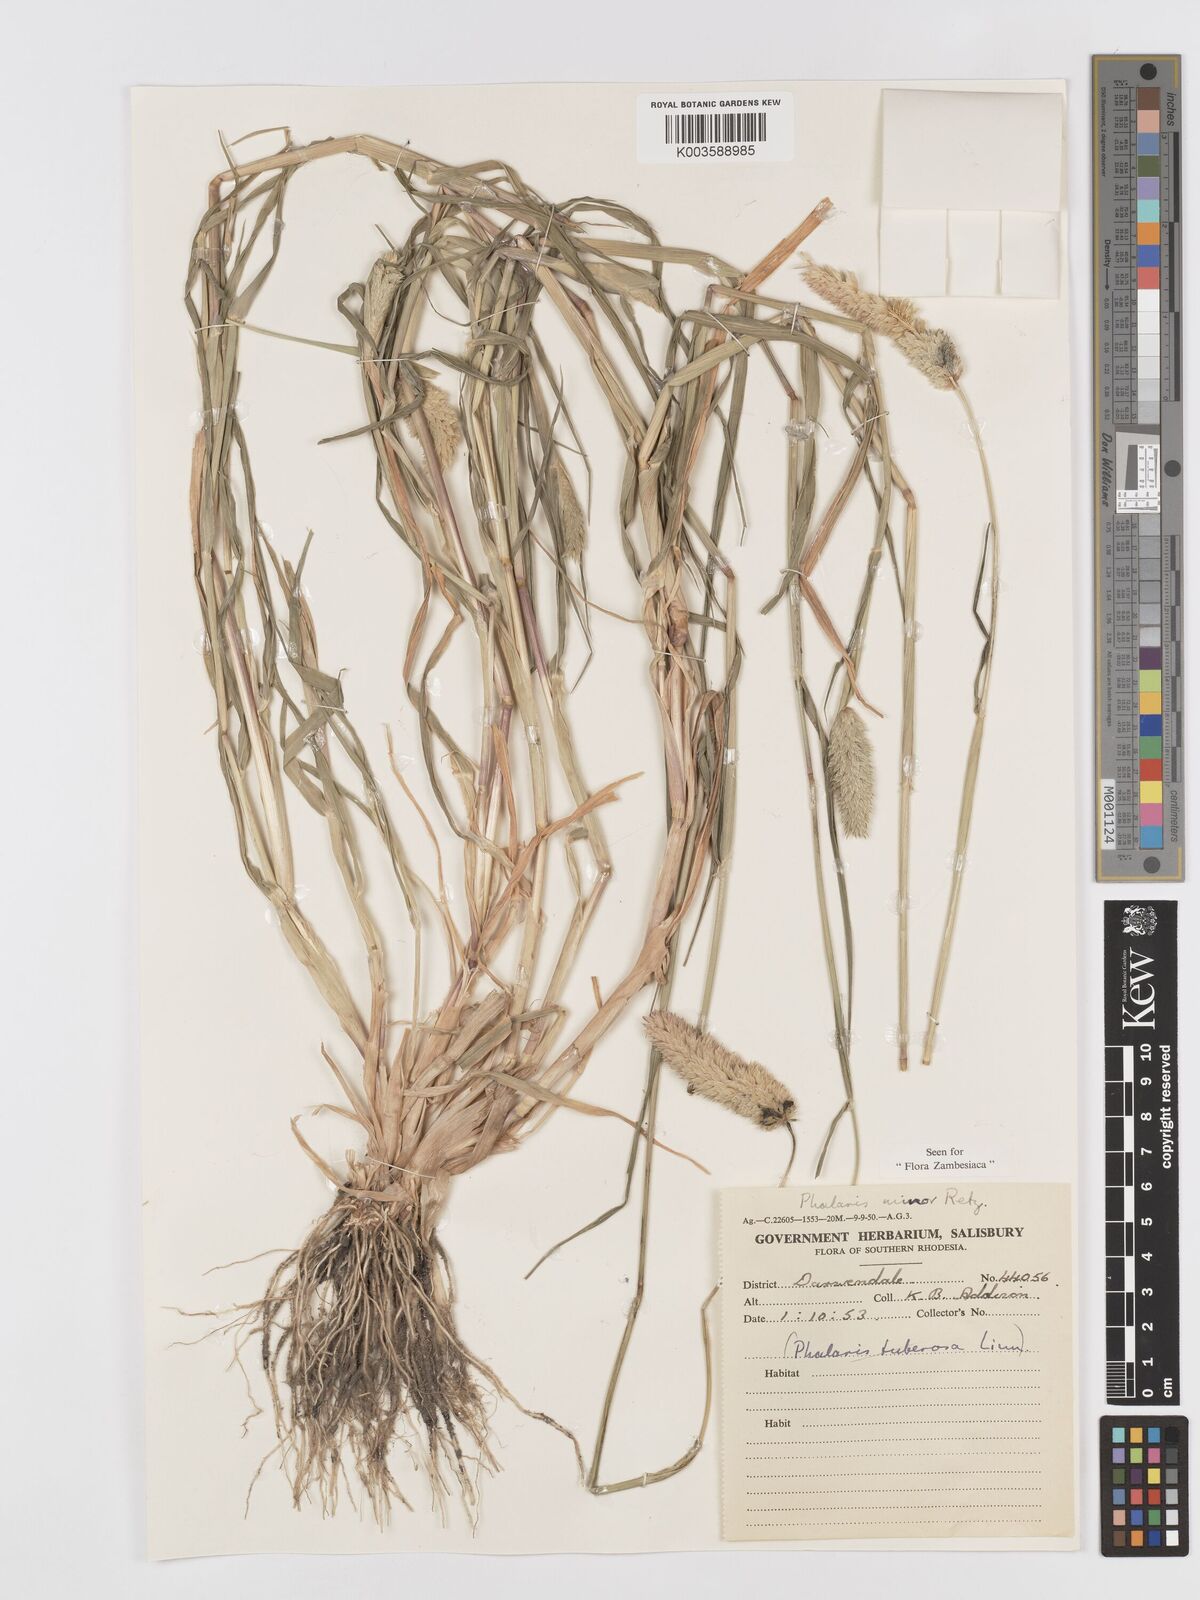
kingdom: Plantae
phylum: Tracheophyta
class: Liliopsida
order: Poales
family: Poaceae
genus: Phalaris
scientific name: Phalaris minor
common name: Littleseed canarygrass
